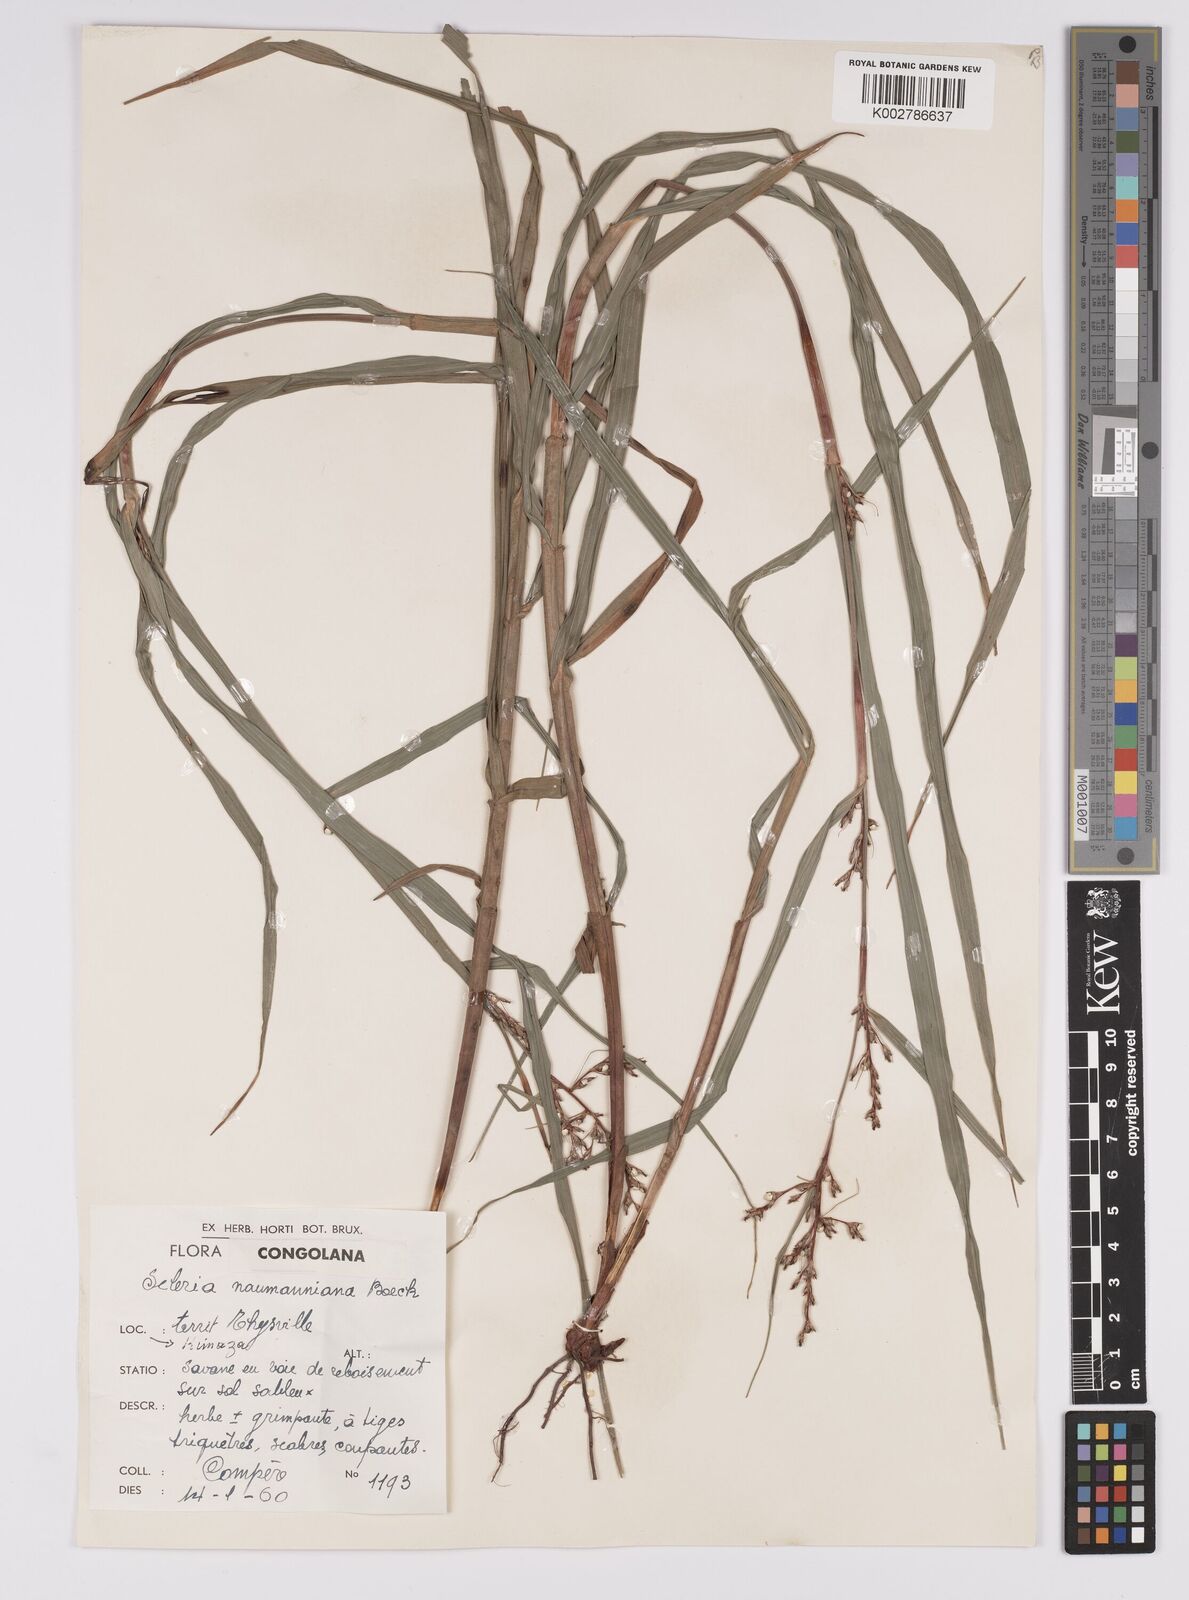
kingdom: Plantae
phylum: Tracheophyta
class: Liliopsida
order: Poales
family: Cyperaceae
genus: Scleria
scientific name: Scleria naumanniana
